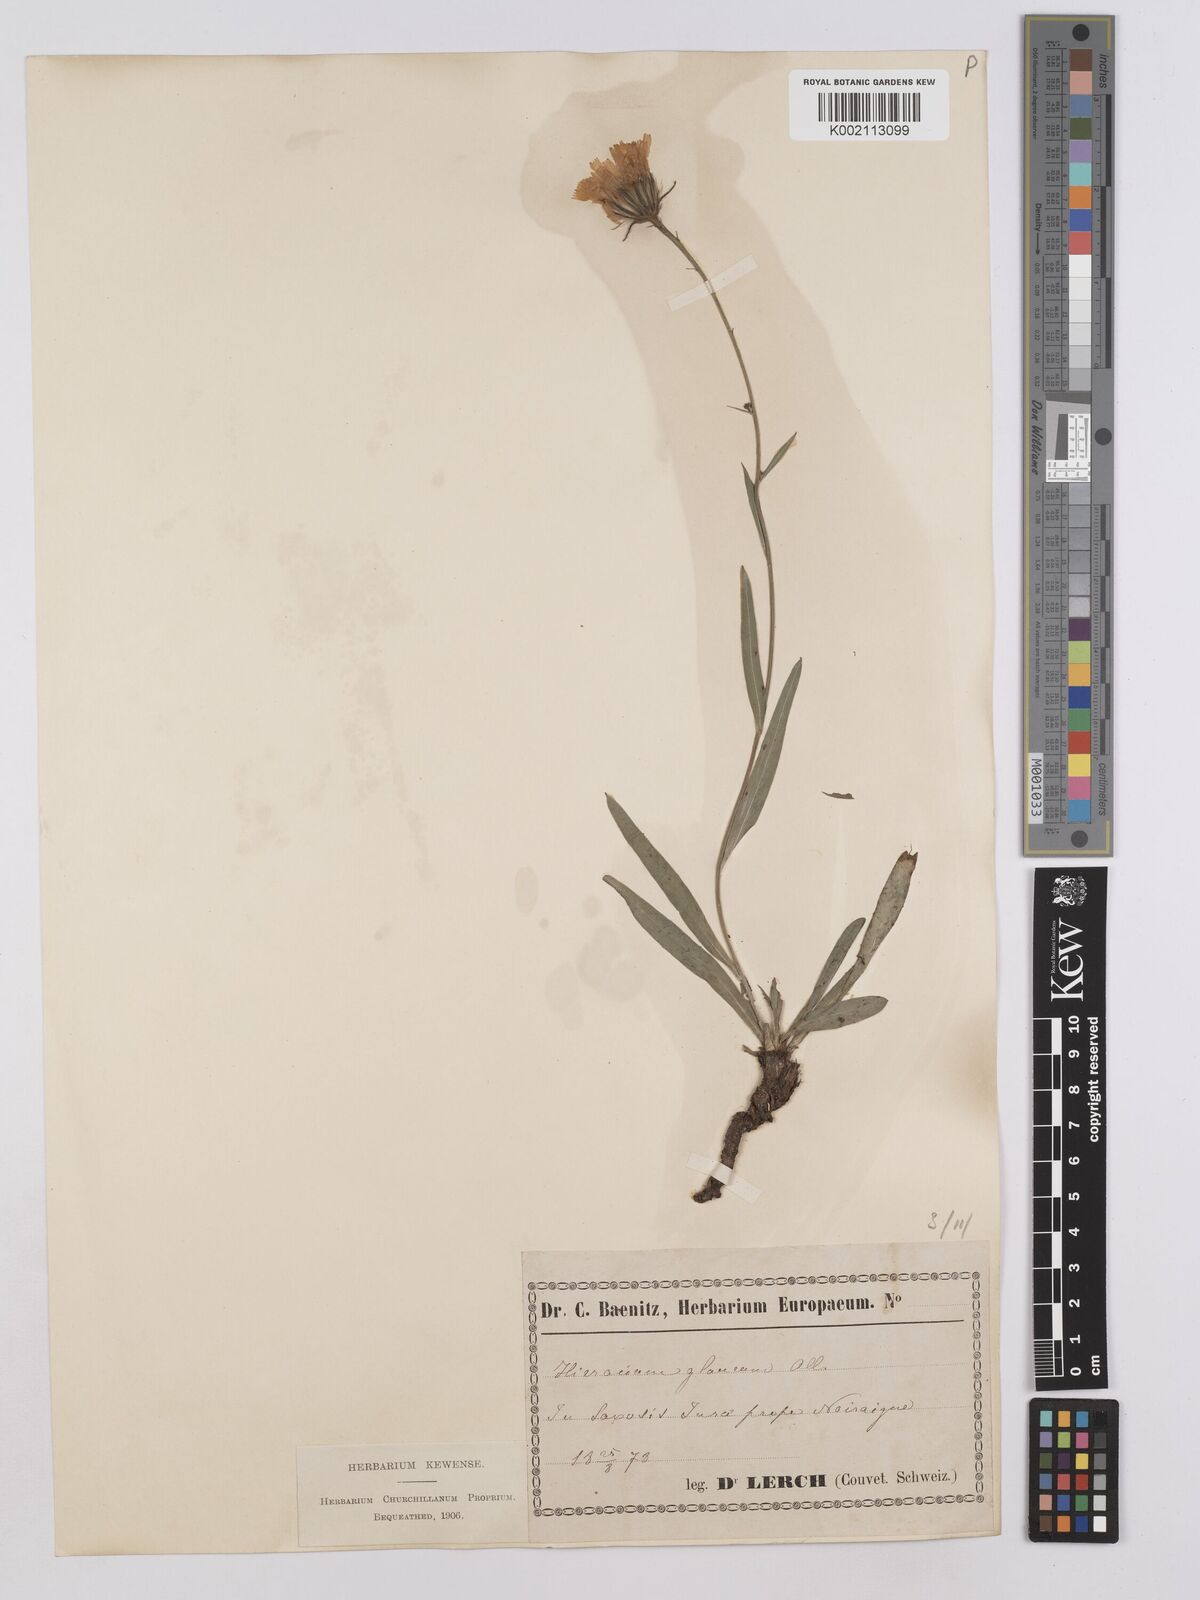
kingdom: Plantae
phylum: Tracheophyta
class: Magnoliopsida
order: Asterales
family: Asteraceae
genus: Hieracium
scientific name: Hieracium glaucum
